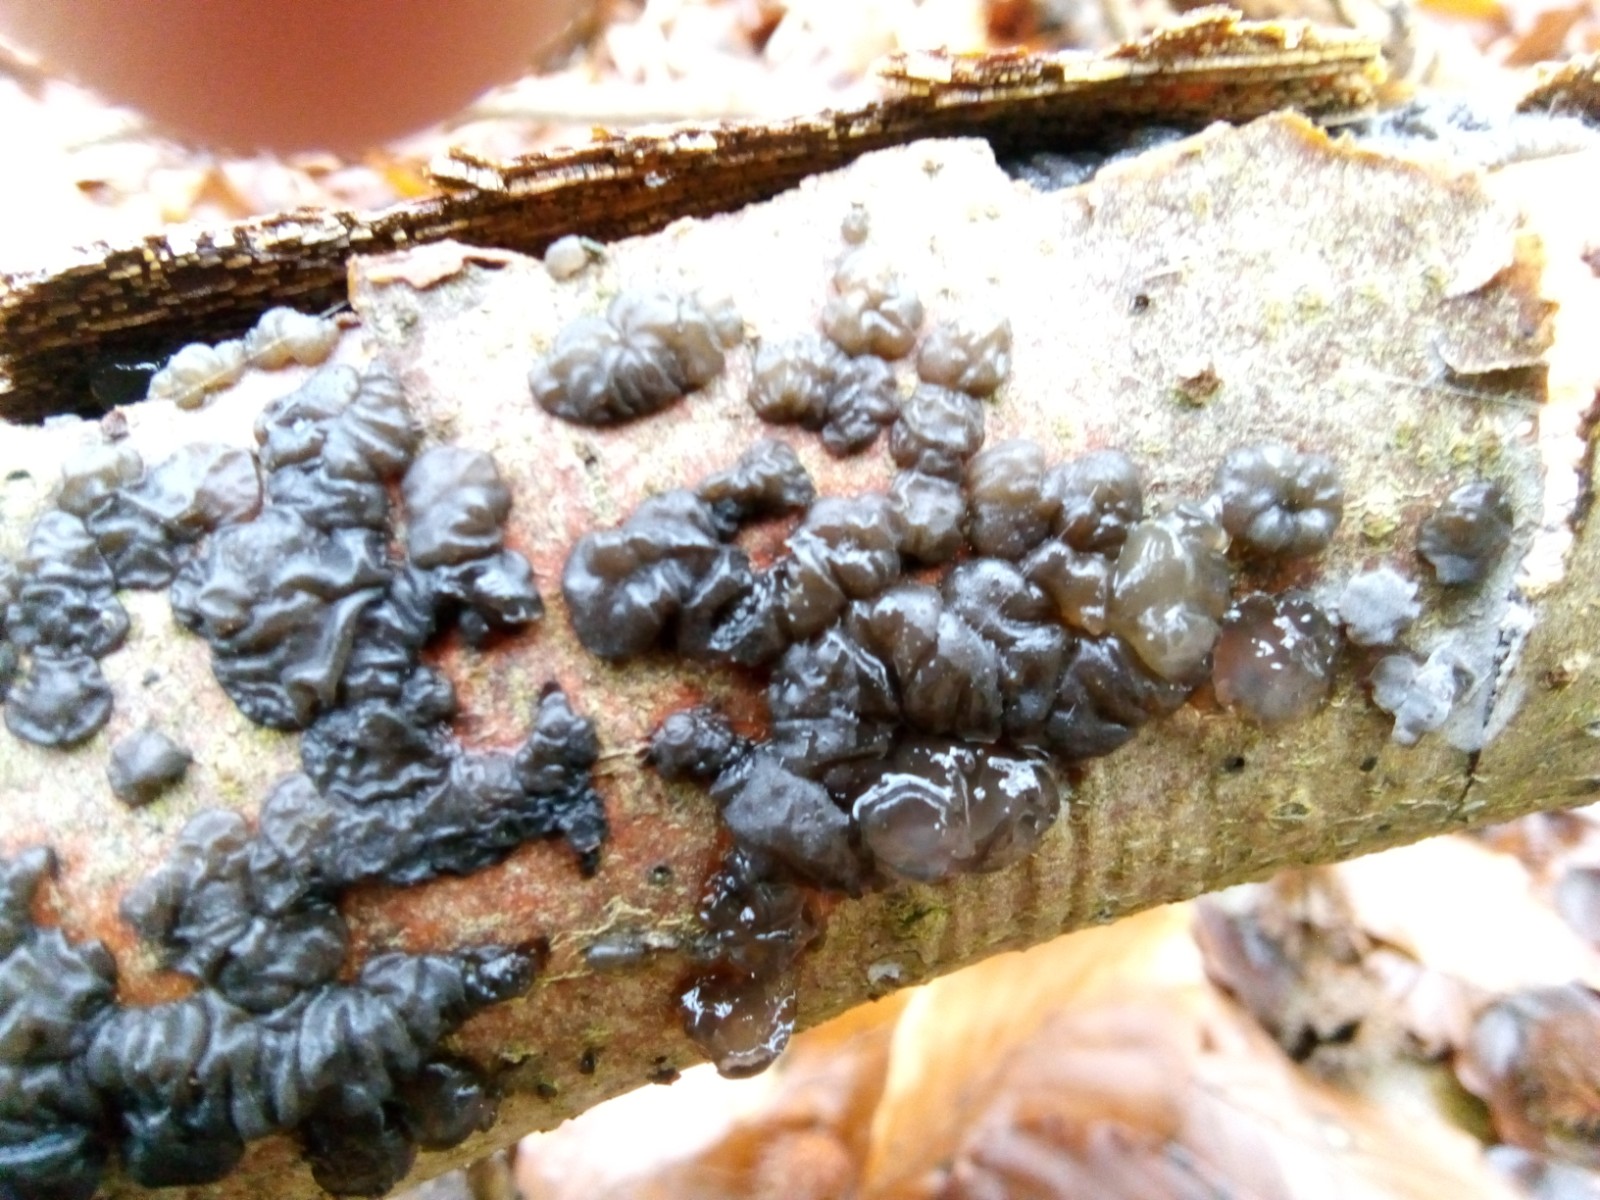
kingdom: Fungi
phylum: Basidiomycota
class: Agaricomycetes
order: Auriculariales
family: Auriculariaceae
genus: Exidia
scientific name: Exidia nigricans
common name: almindelig bævretop
